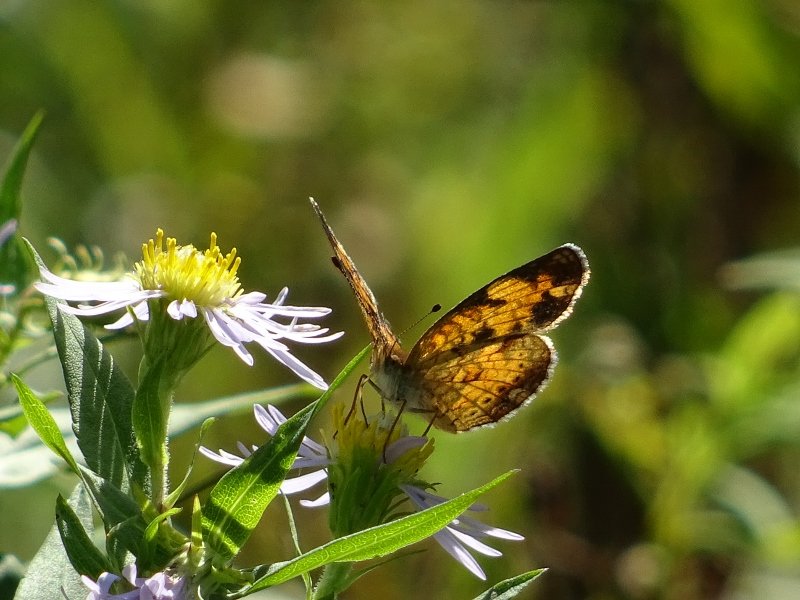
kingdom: Animalia
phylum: Arthropoda
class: Insecta
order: Lepidoptera
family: Nymphalidae
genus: Phyciodes
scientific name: Phyciodes tharos
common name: Pearl Crescent
